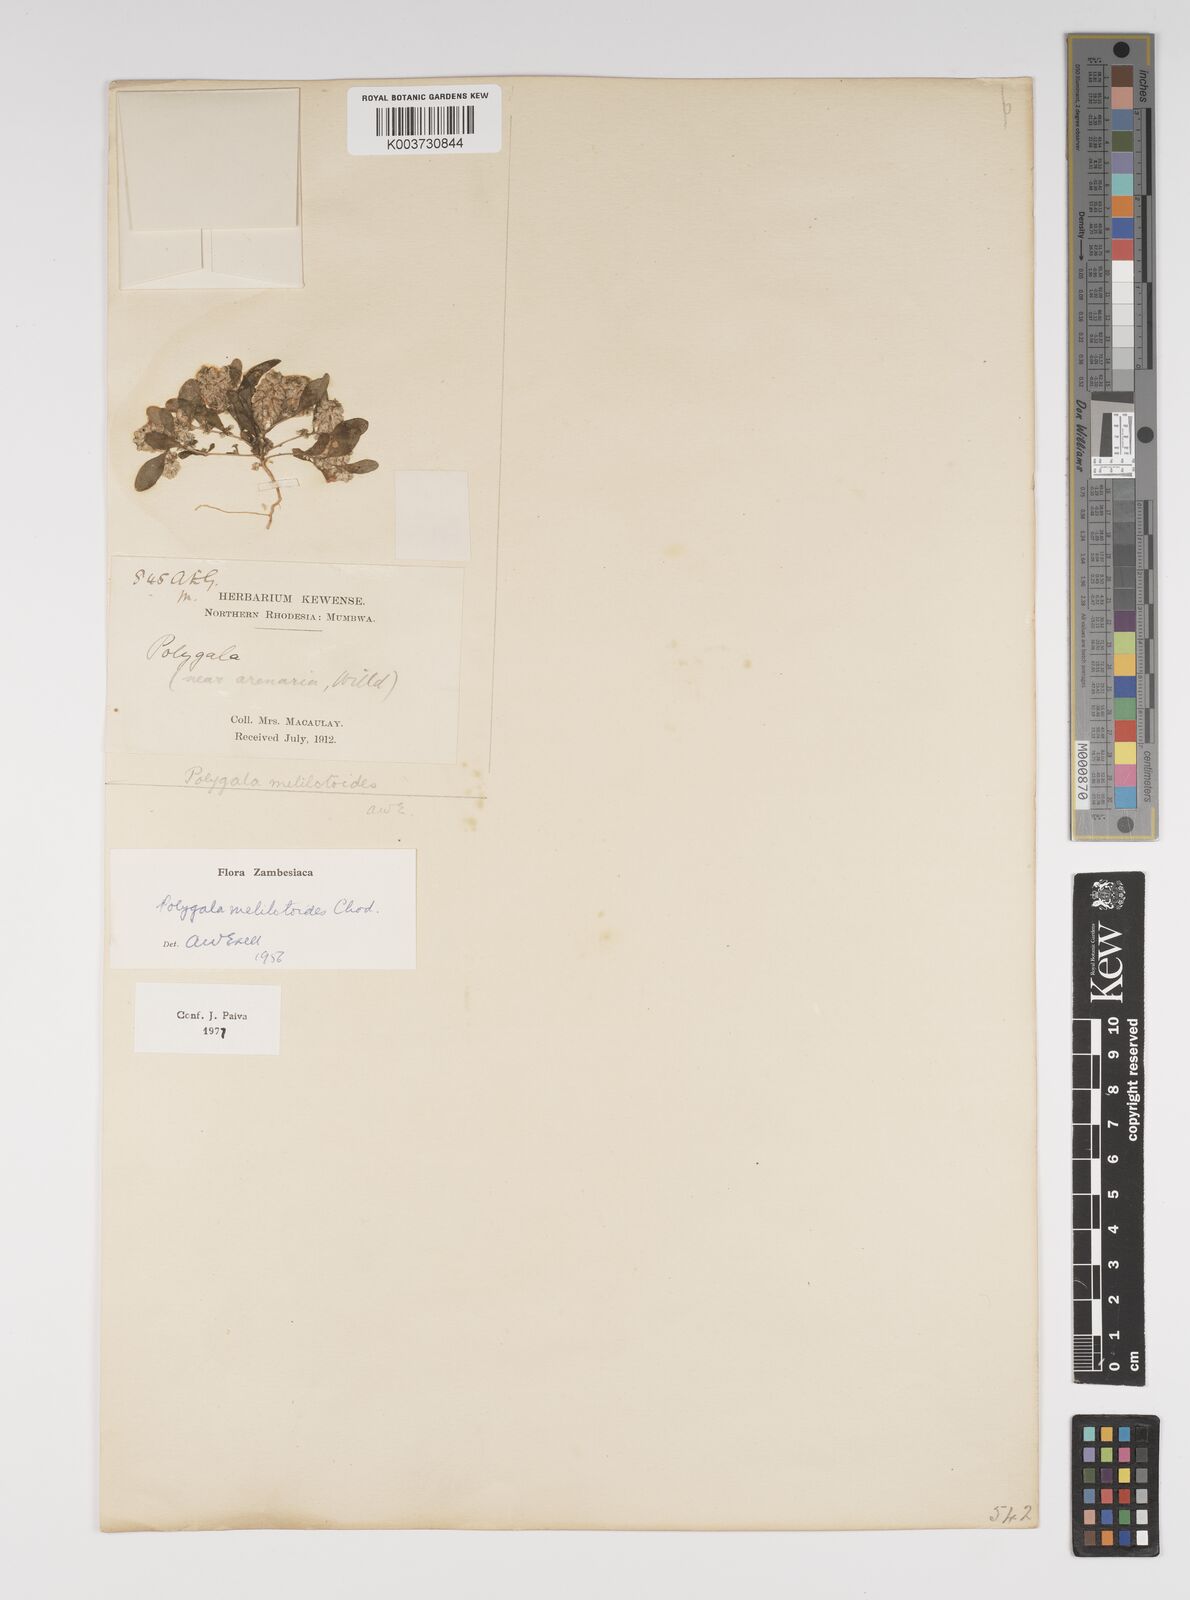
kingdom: Plantae
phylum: Tracheophyta
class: Magnoliopsida
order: Fabales
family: Polygalaceae
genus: Polygala
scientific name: Polygala melilotoides
